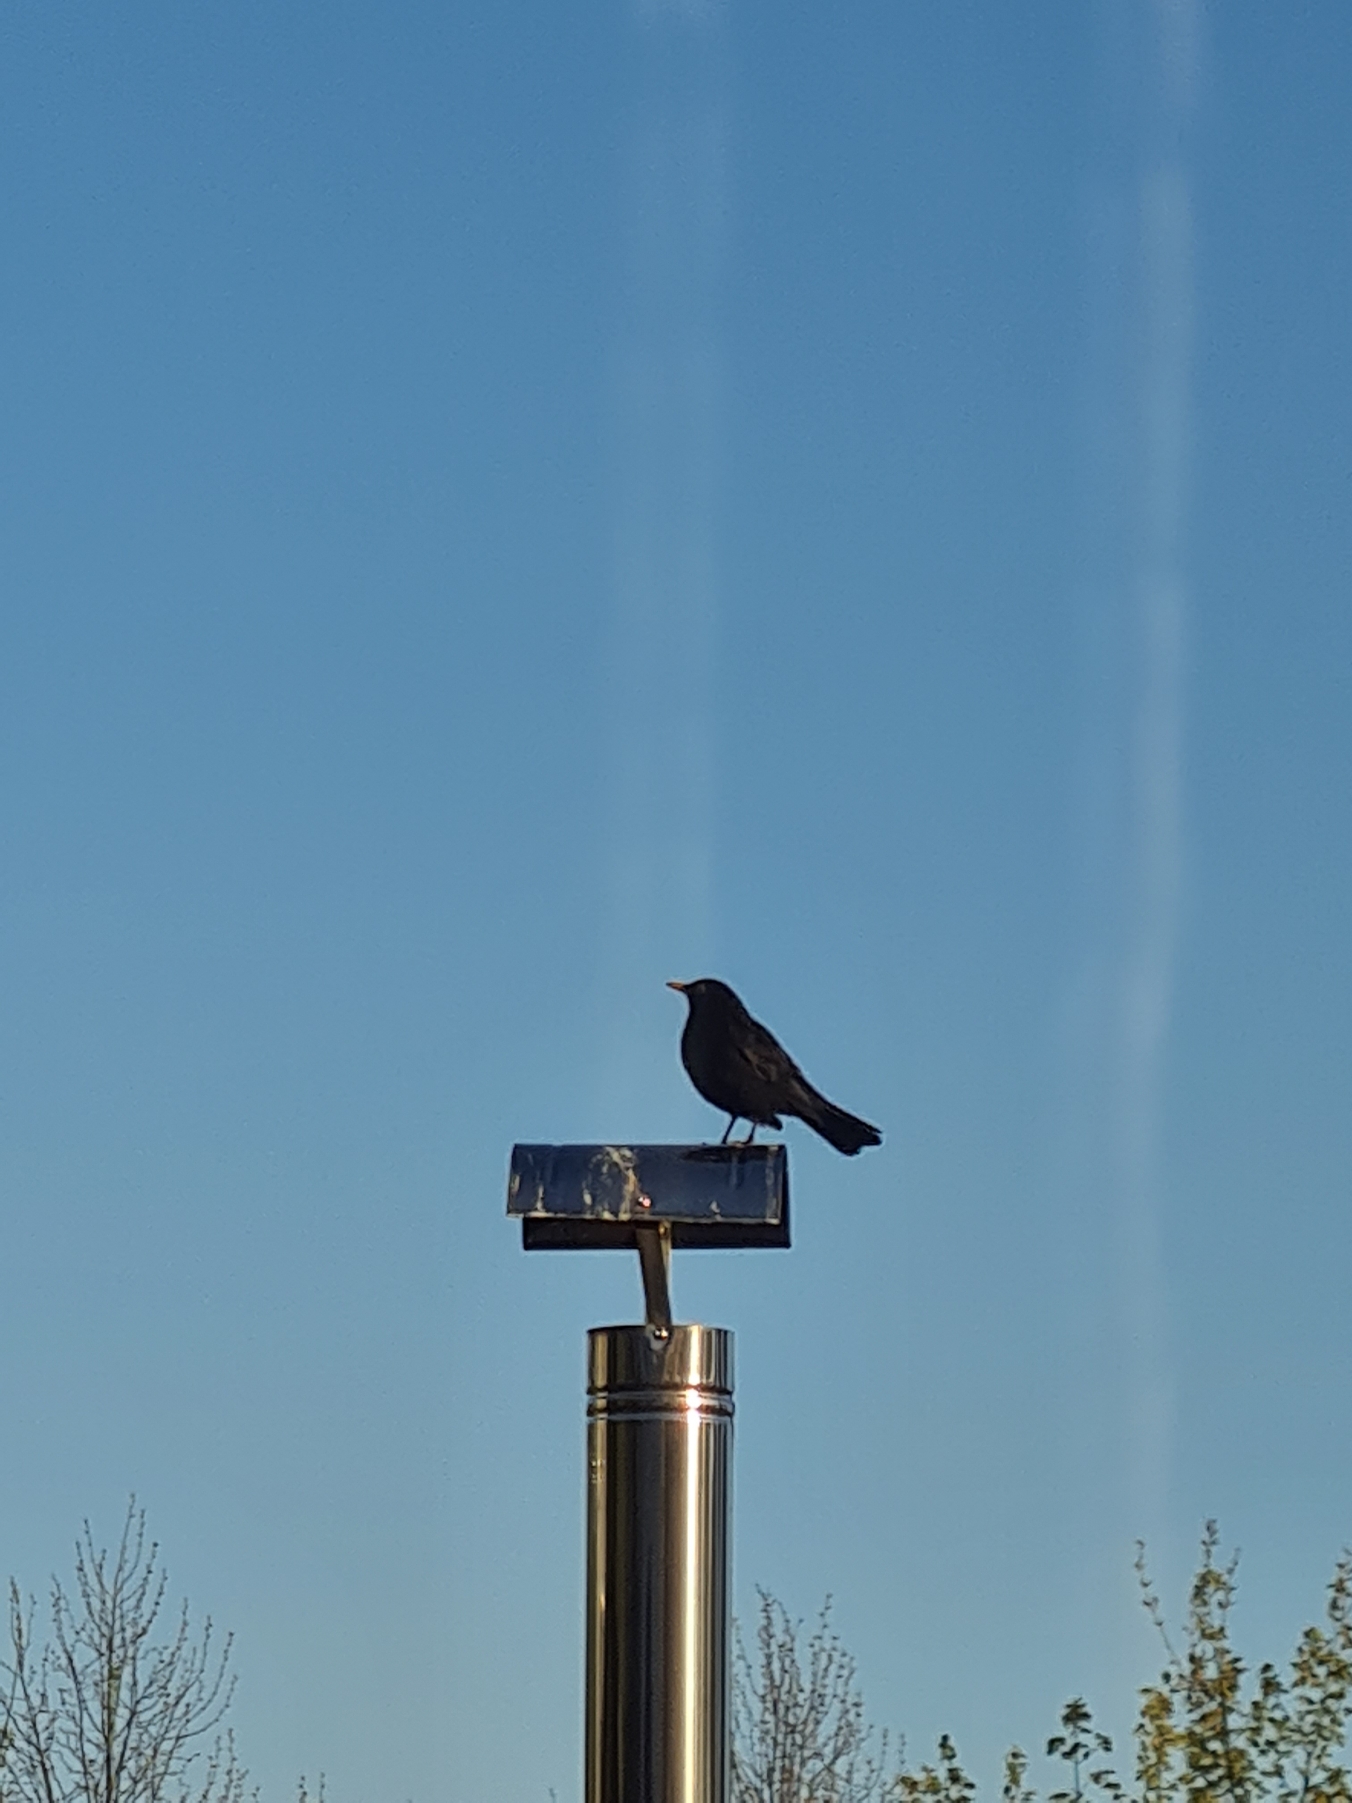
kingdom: Animalia
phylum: Chordata
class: Aves
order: Passeriformes
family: Turdidae
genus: Turdus
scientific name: Turdus merula
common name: Solsort
